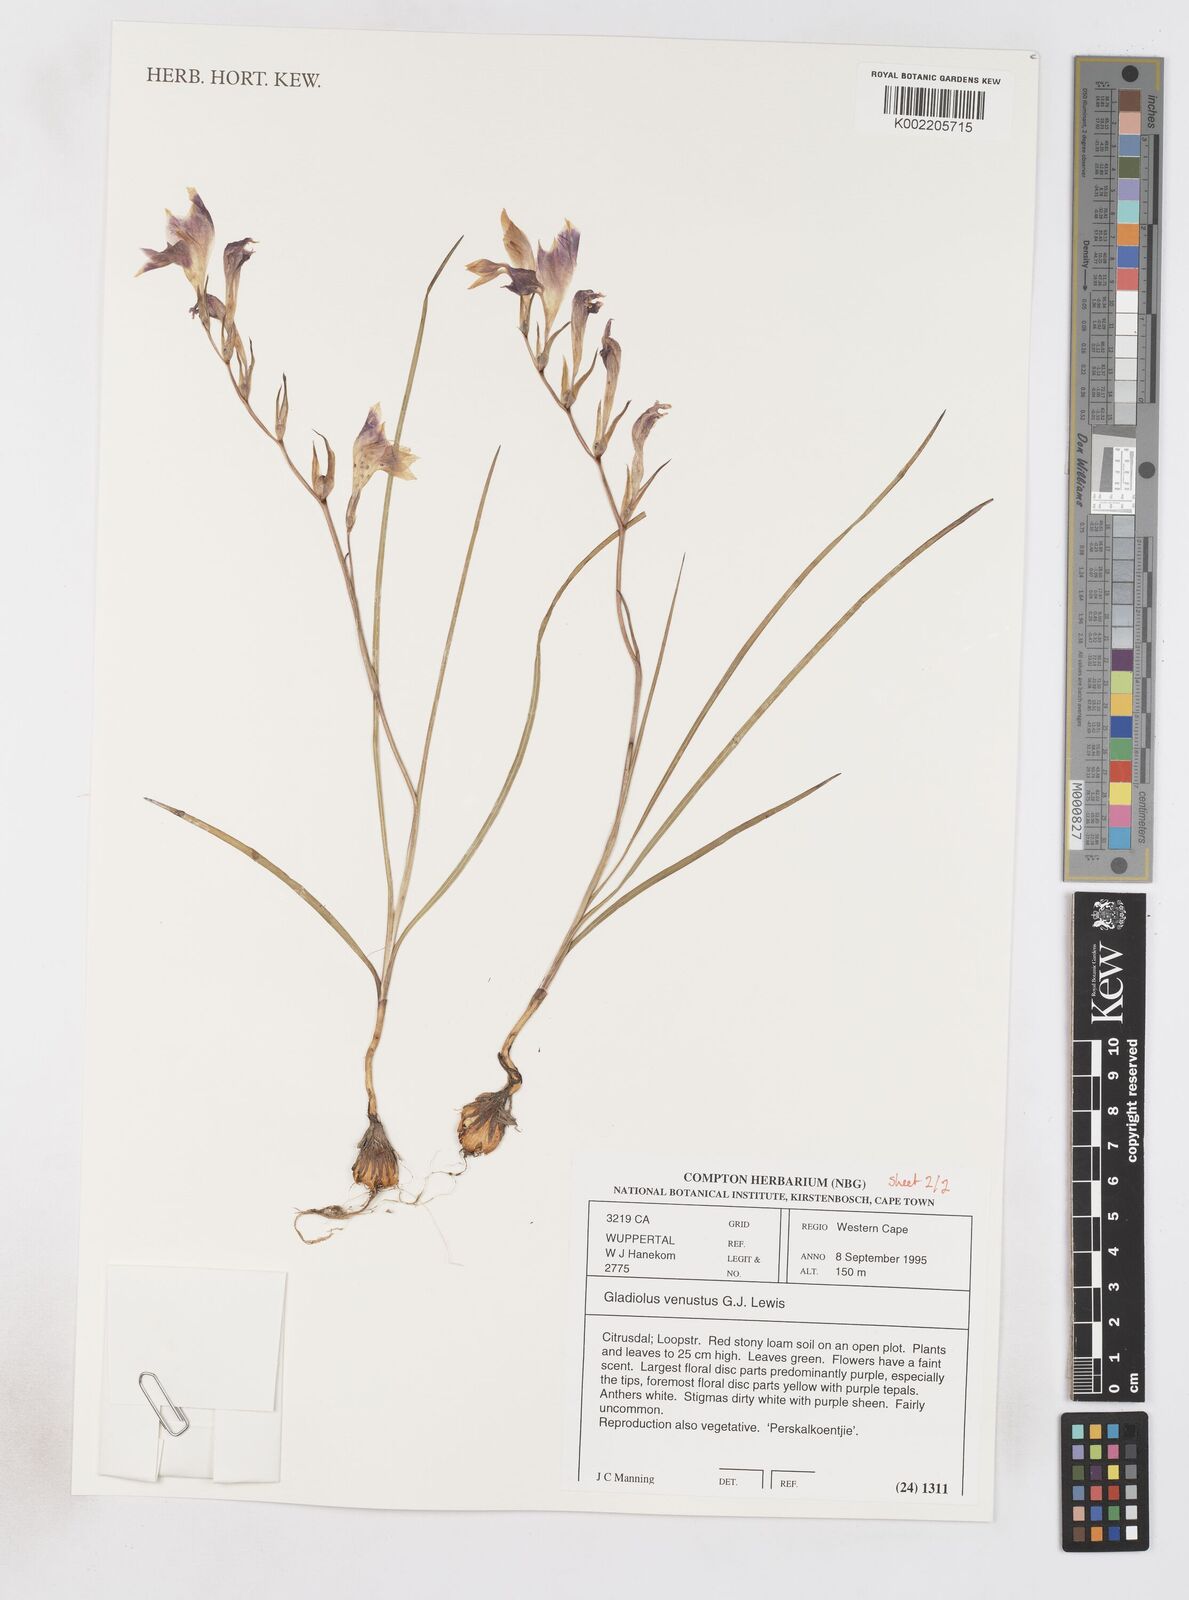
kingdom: Plantae
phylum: Tracheophyta
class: Liliopsida
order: Asparagales
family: Iridaceae
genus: Gladiolus
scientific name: Gladiolus venustus
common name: Purple kalkoentjie
